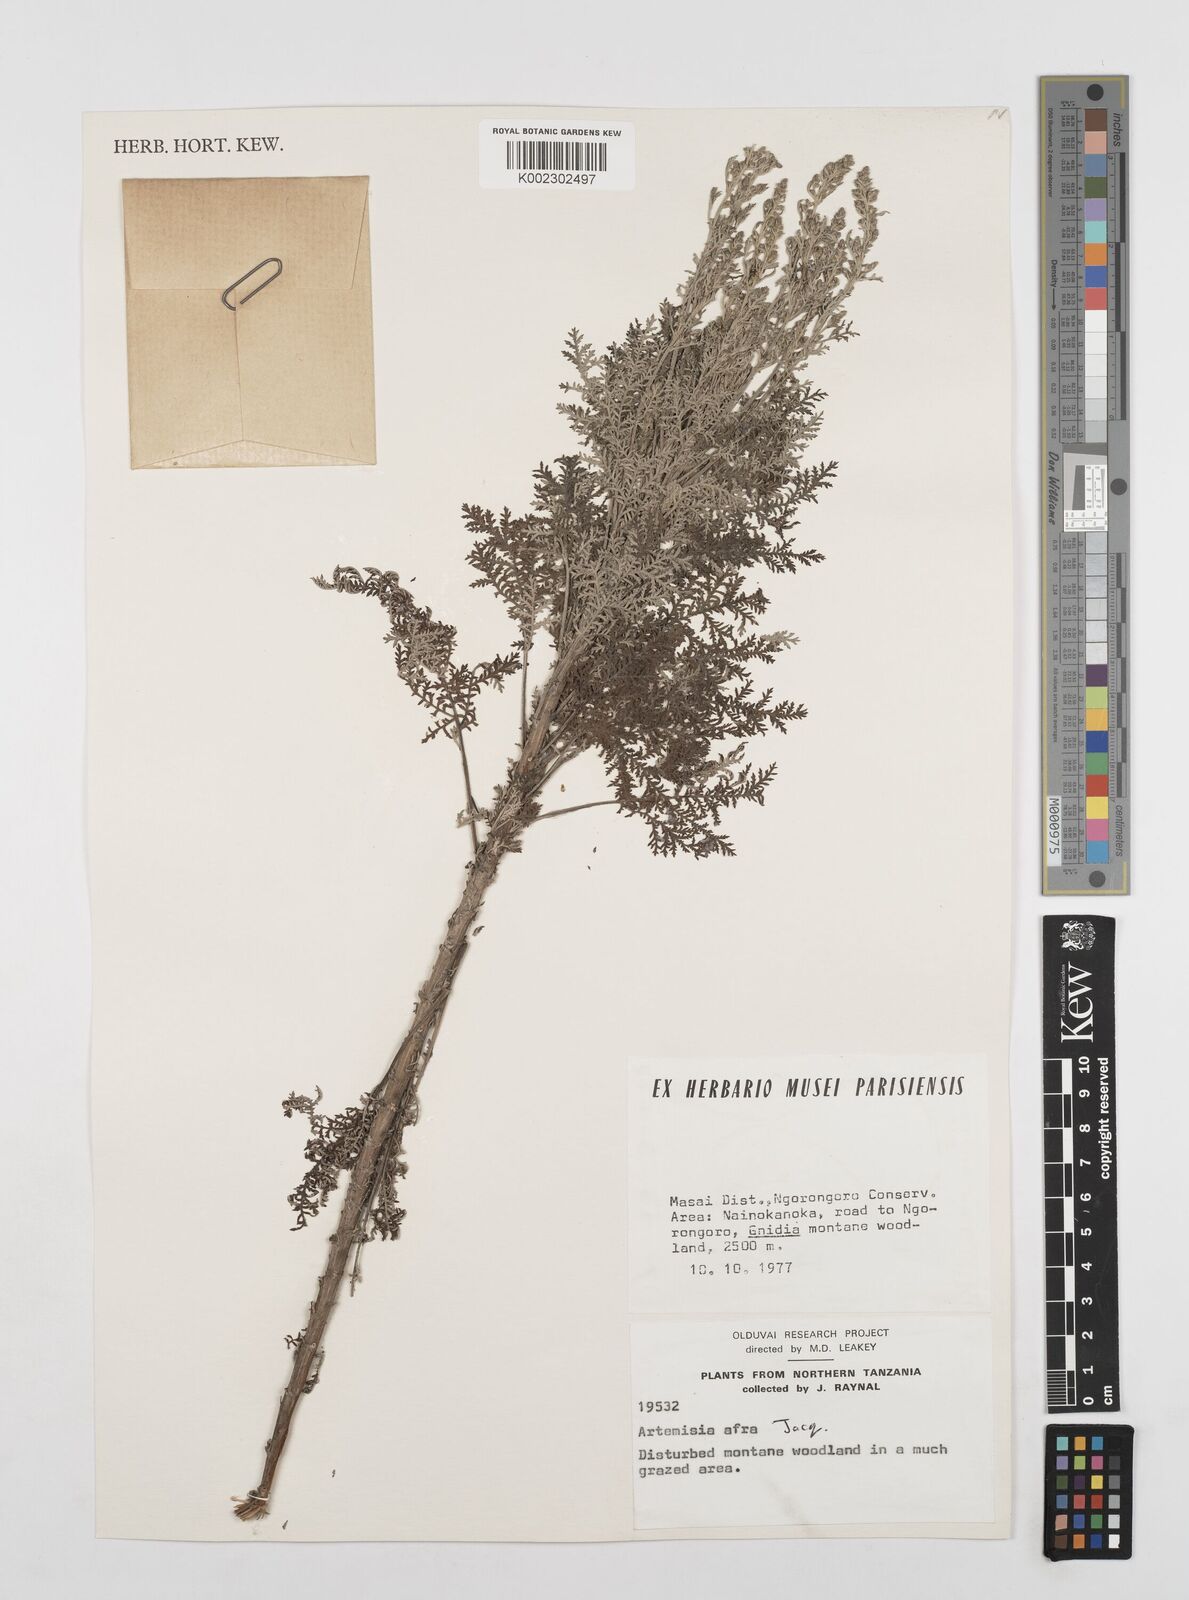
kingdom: Plantae
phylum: Tracheophyta
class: Magnoliopsida
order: Asterales
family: Asteraceae
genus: Artemisia
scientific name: Artemisia afra
